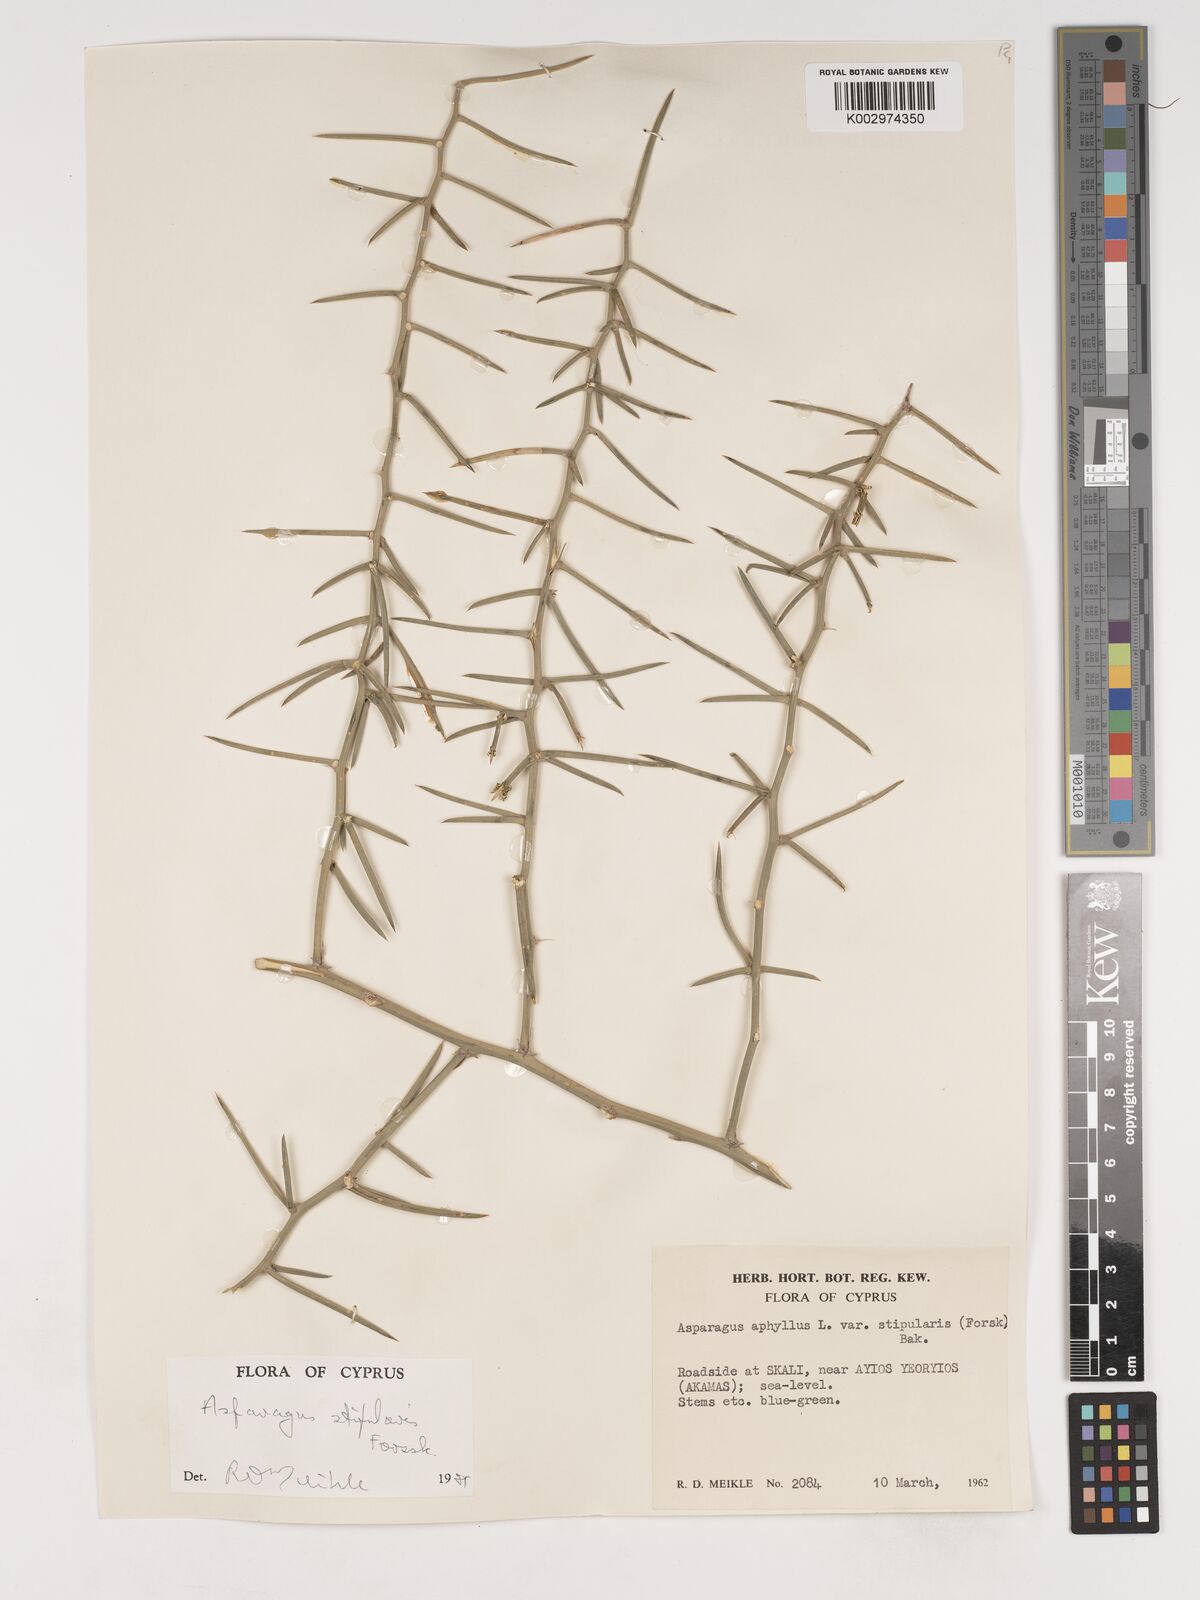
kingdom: Plantae
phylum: Tracheophyta
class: Liliopsida
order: Asparagales
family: Asparagaceae
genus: Asparagus
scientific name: Asparagus aphyllus
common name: Mediterranean asparagus
